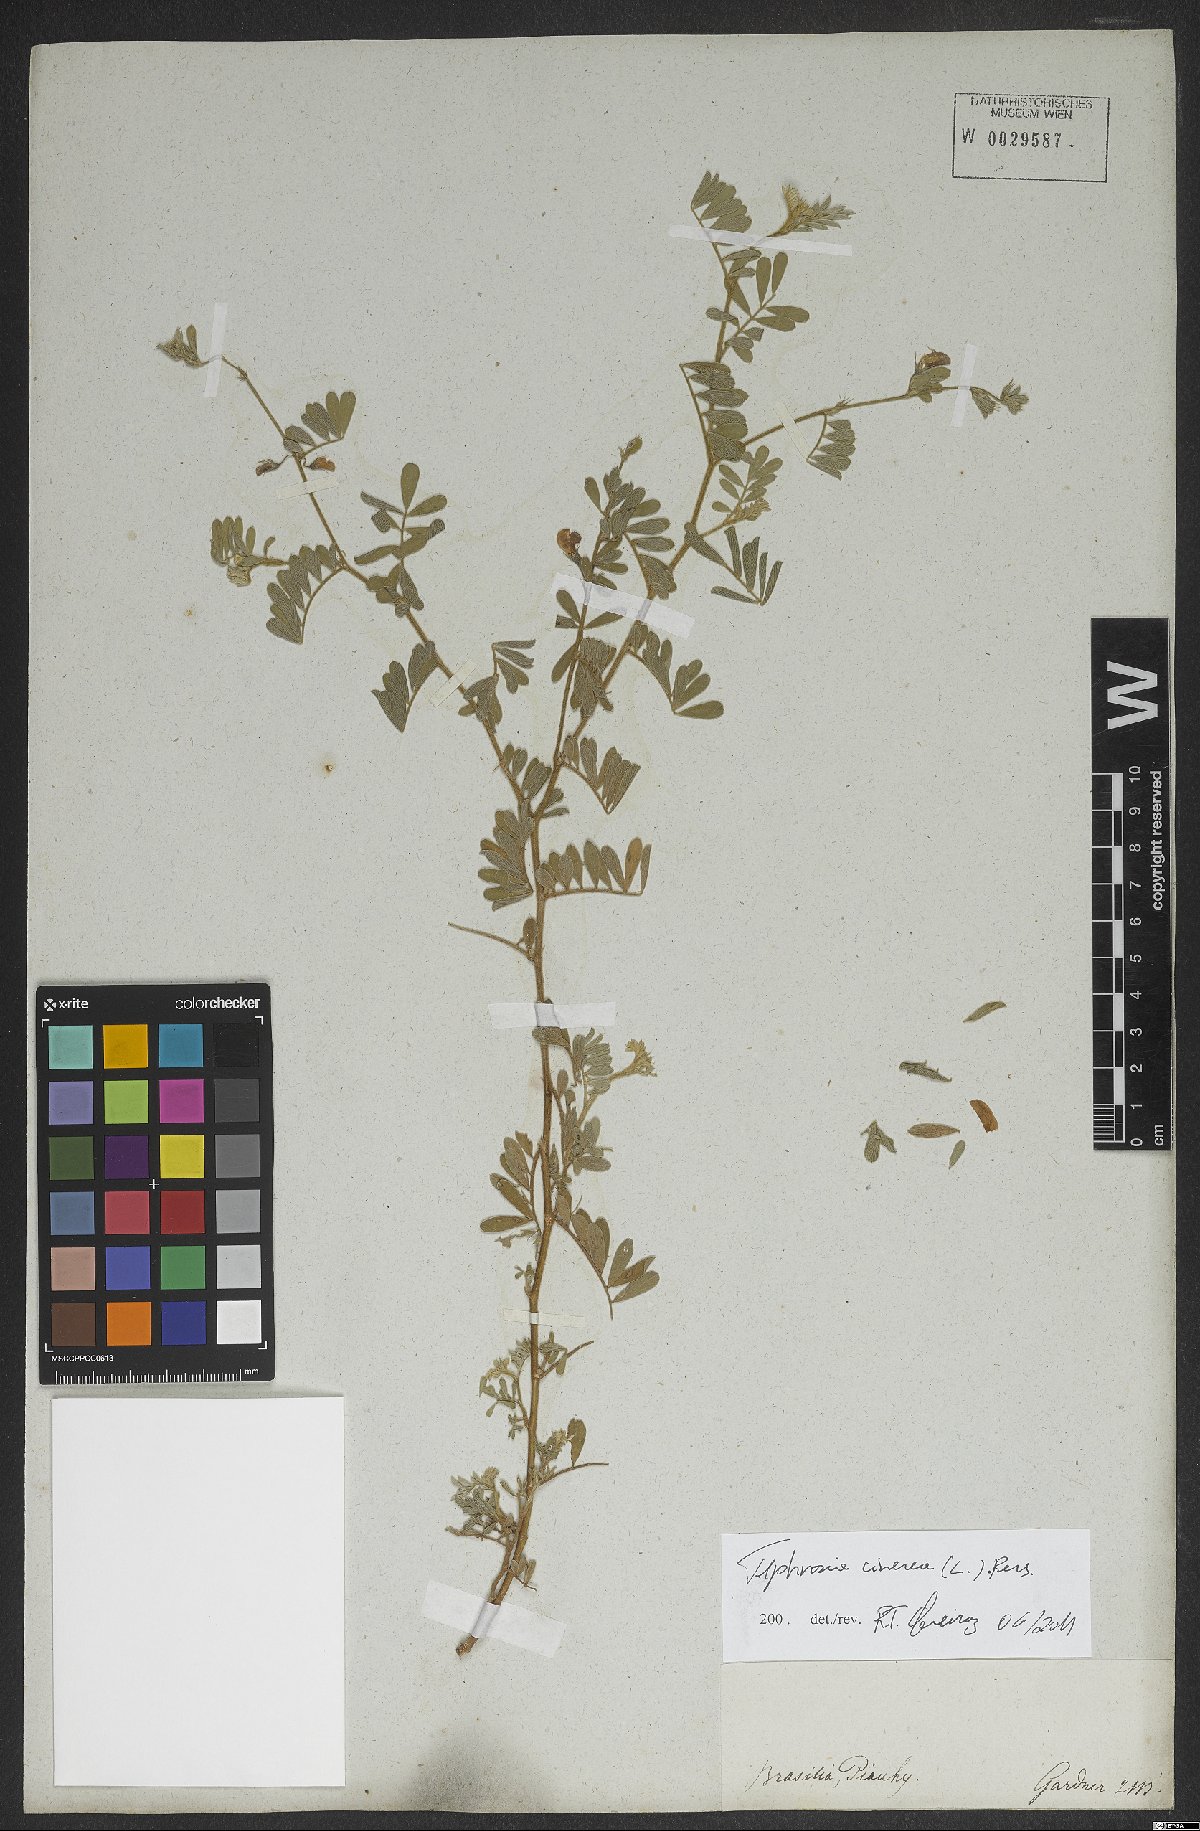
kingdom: Plantae
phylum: Tracheophyta
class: Magnoliopsida
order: Fabales
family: Fabaceae
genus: Tephrosia
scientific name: Tephrosia cinerea
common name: Ashen hoarypea
